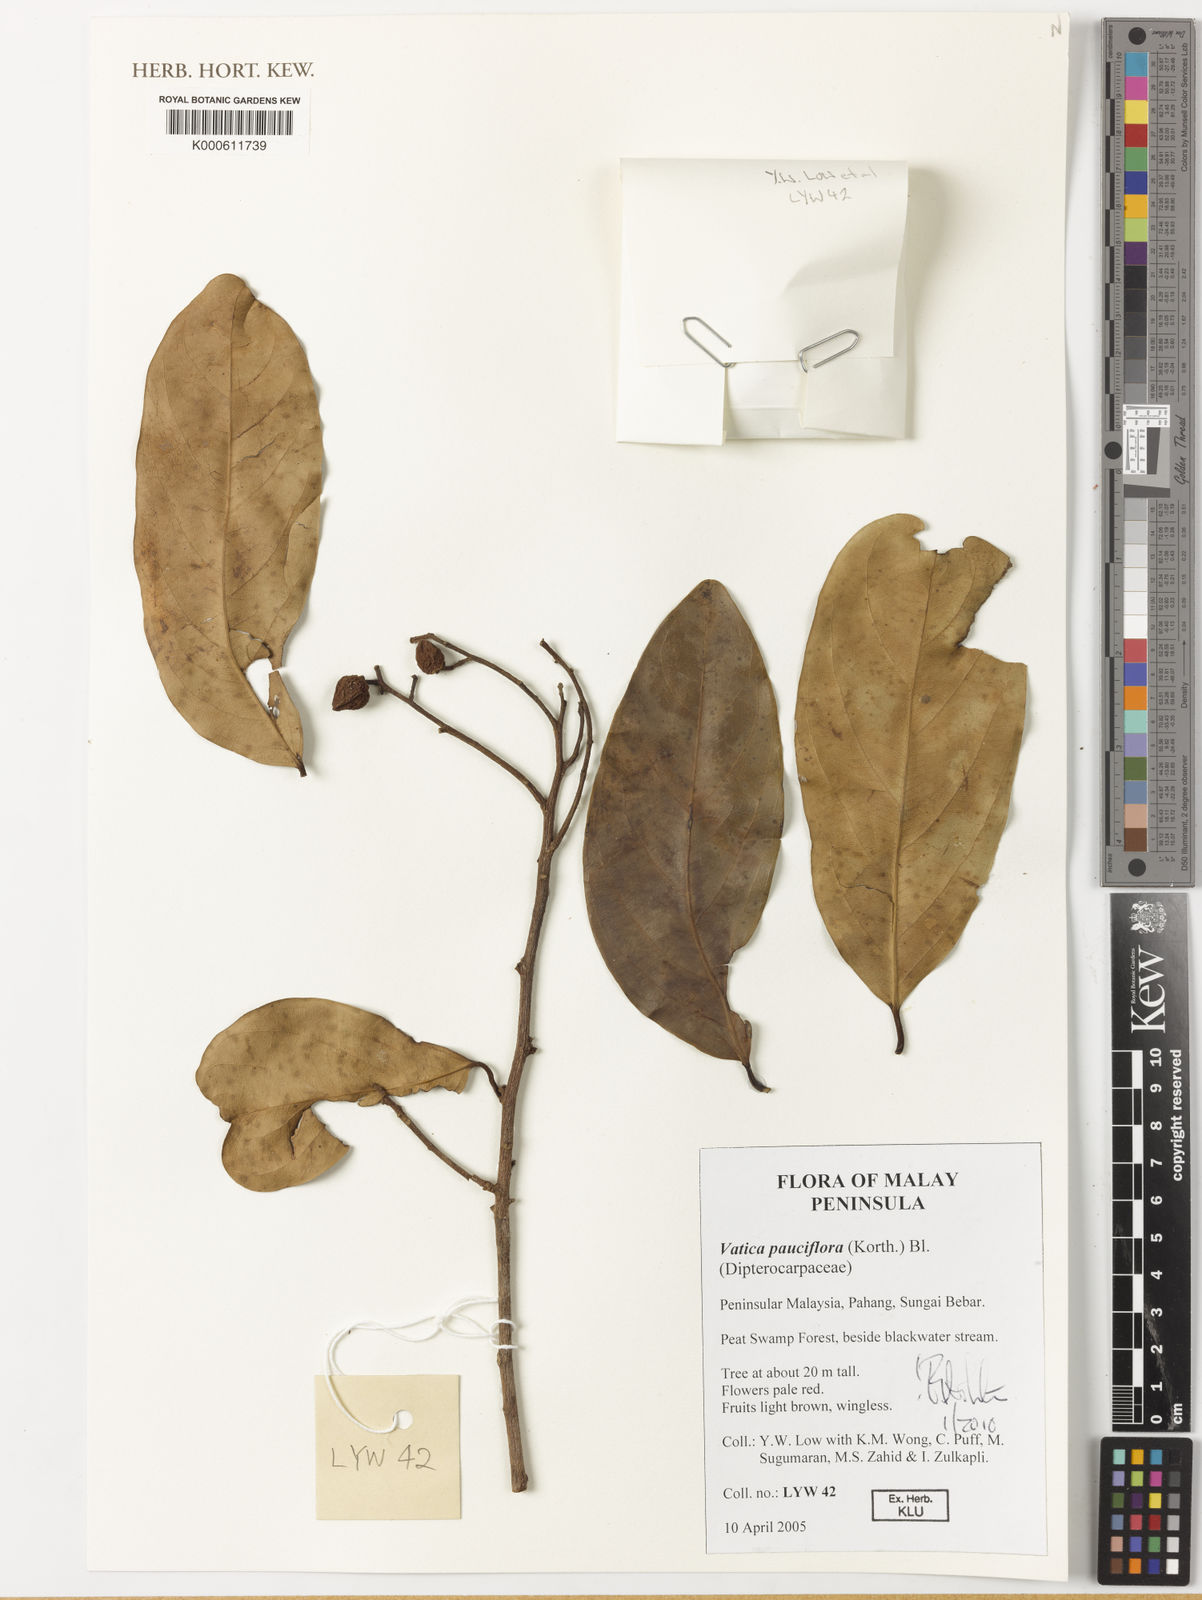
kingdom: Plantae
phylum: Tracheophyta
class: Magnoliopsida
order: Malvales
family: Dipterocarpaceae
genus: Vatica
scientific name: Vatica pauciflora
